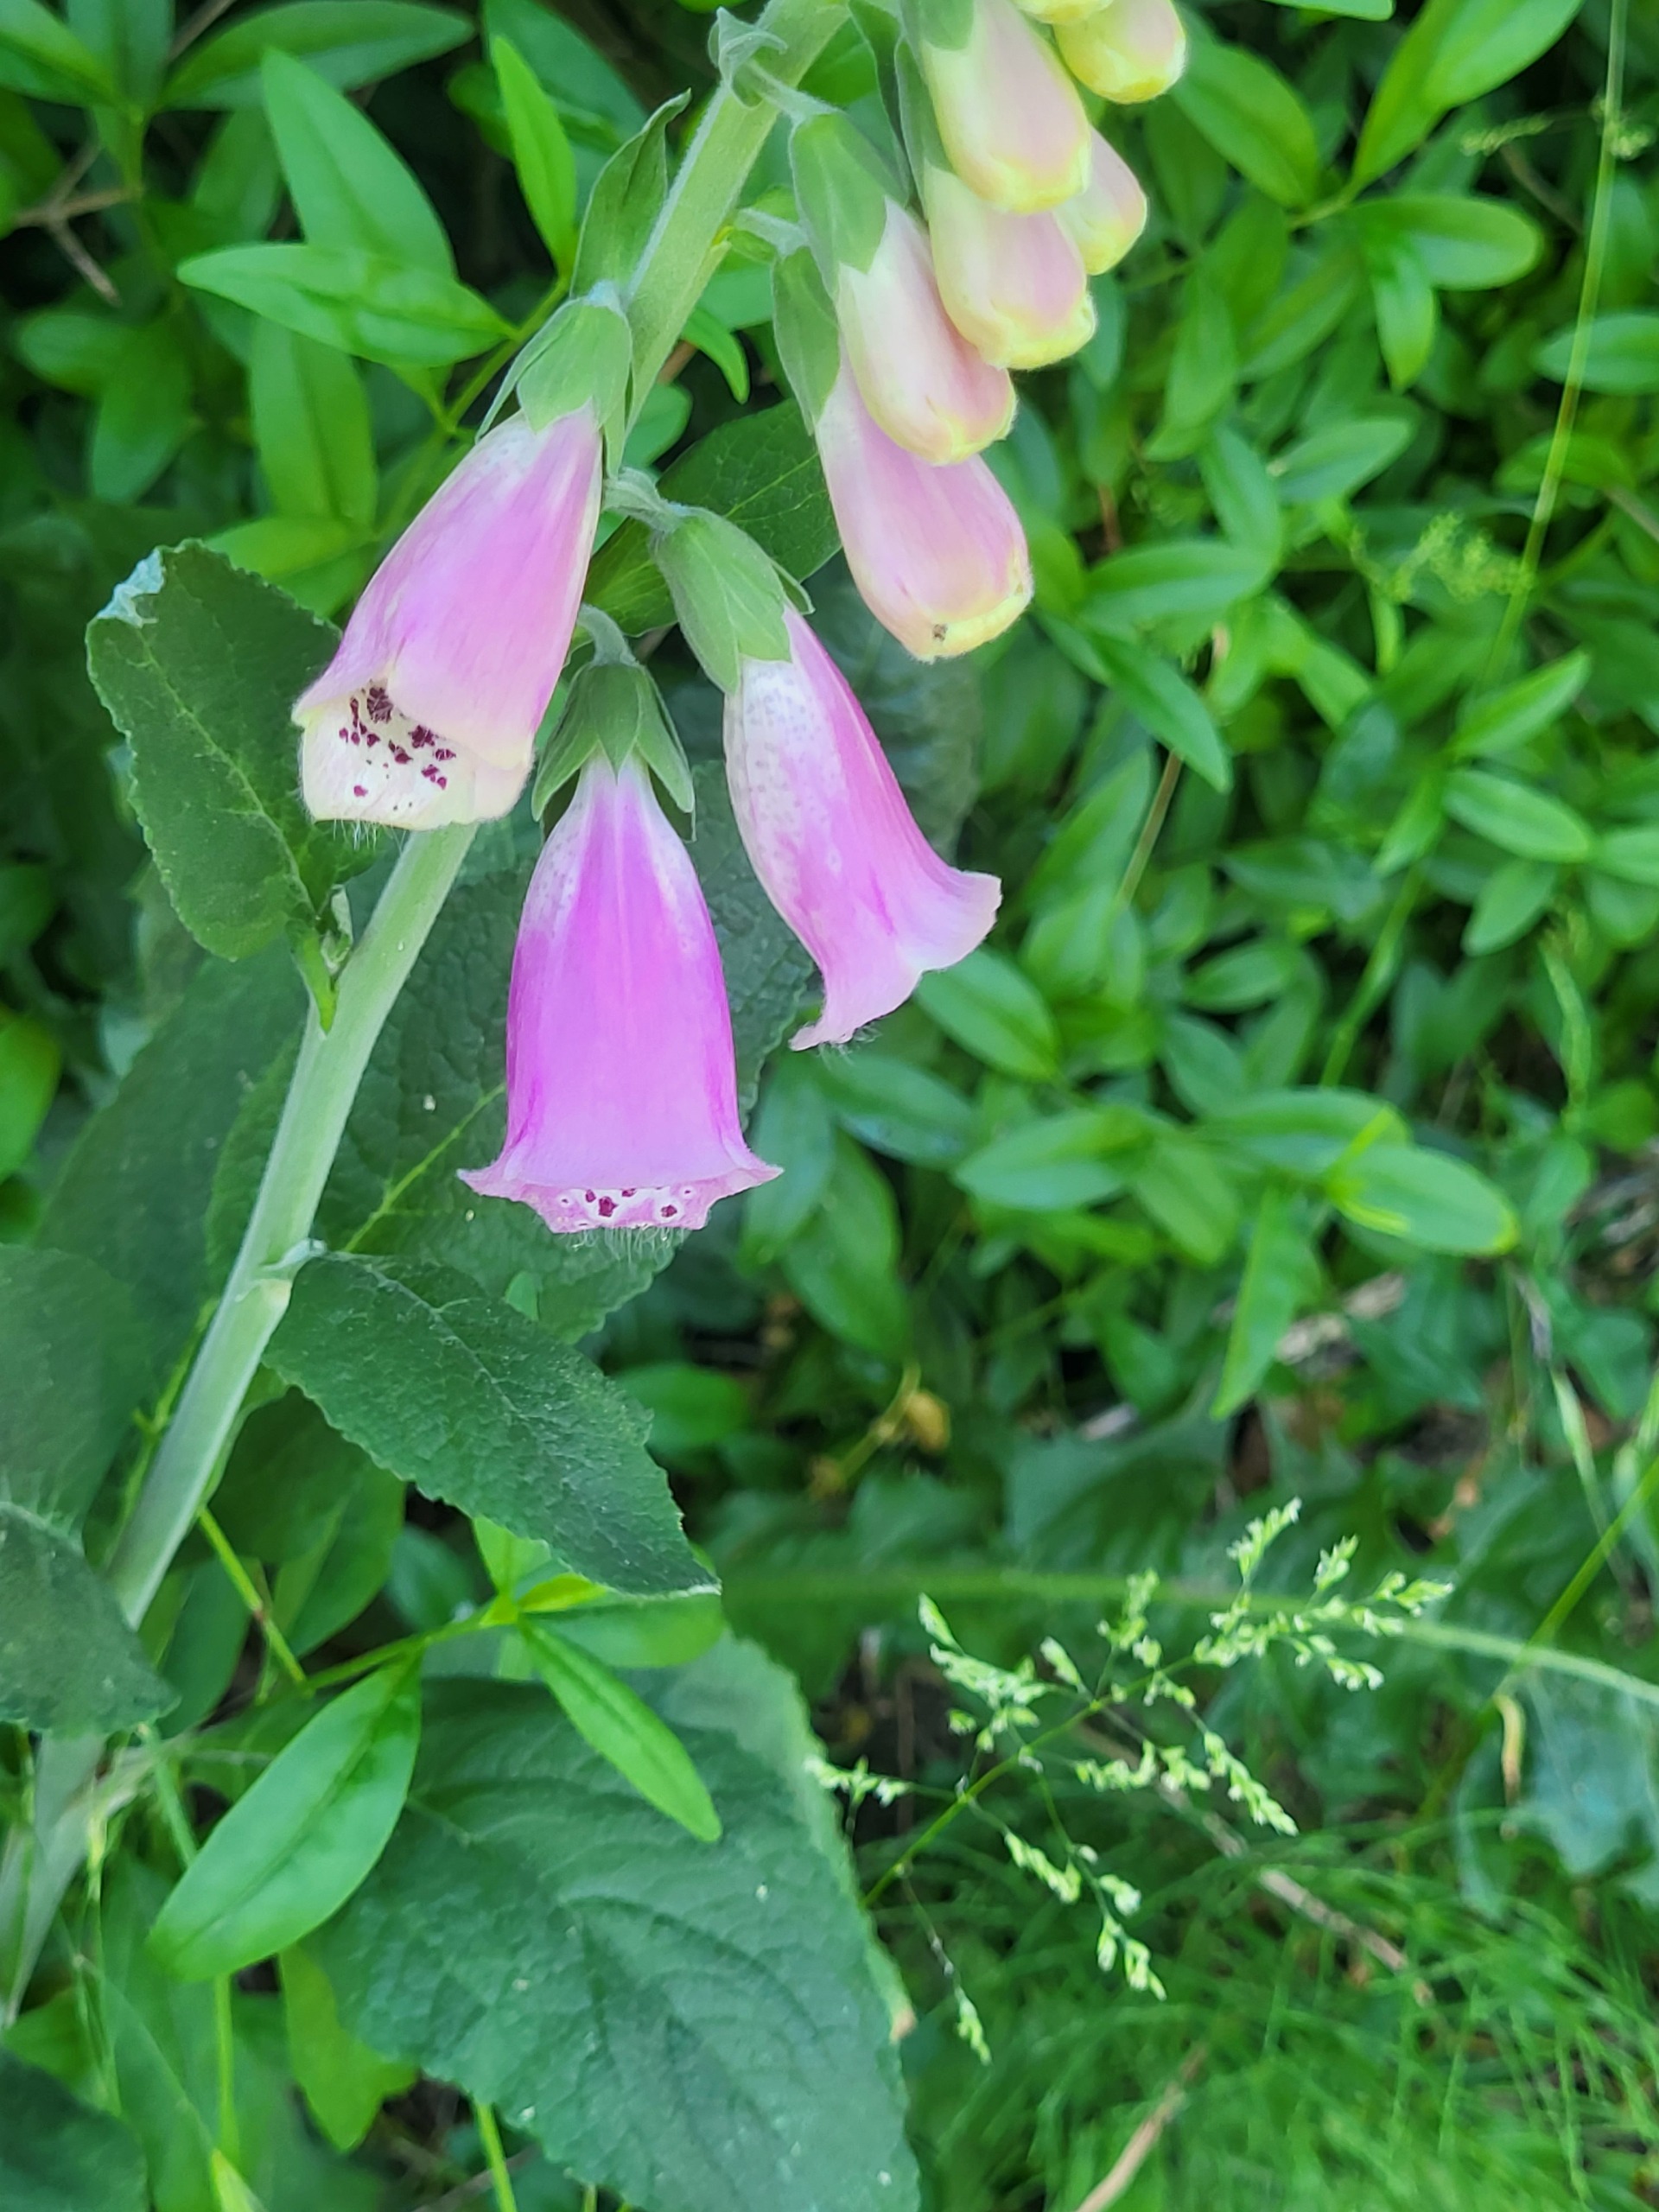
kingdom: Plantae
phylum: Tracheophyta
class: Magnoliopsida
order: Lamiales
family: Plantaginaceae
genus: Digitalis
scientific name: Digitalis purpurea
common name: Almindelig fingerbøl
